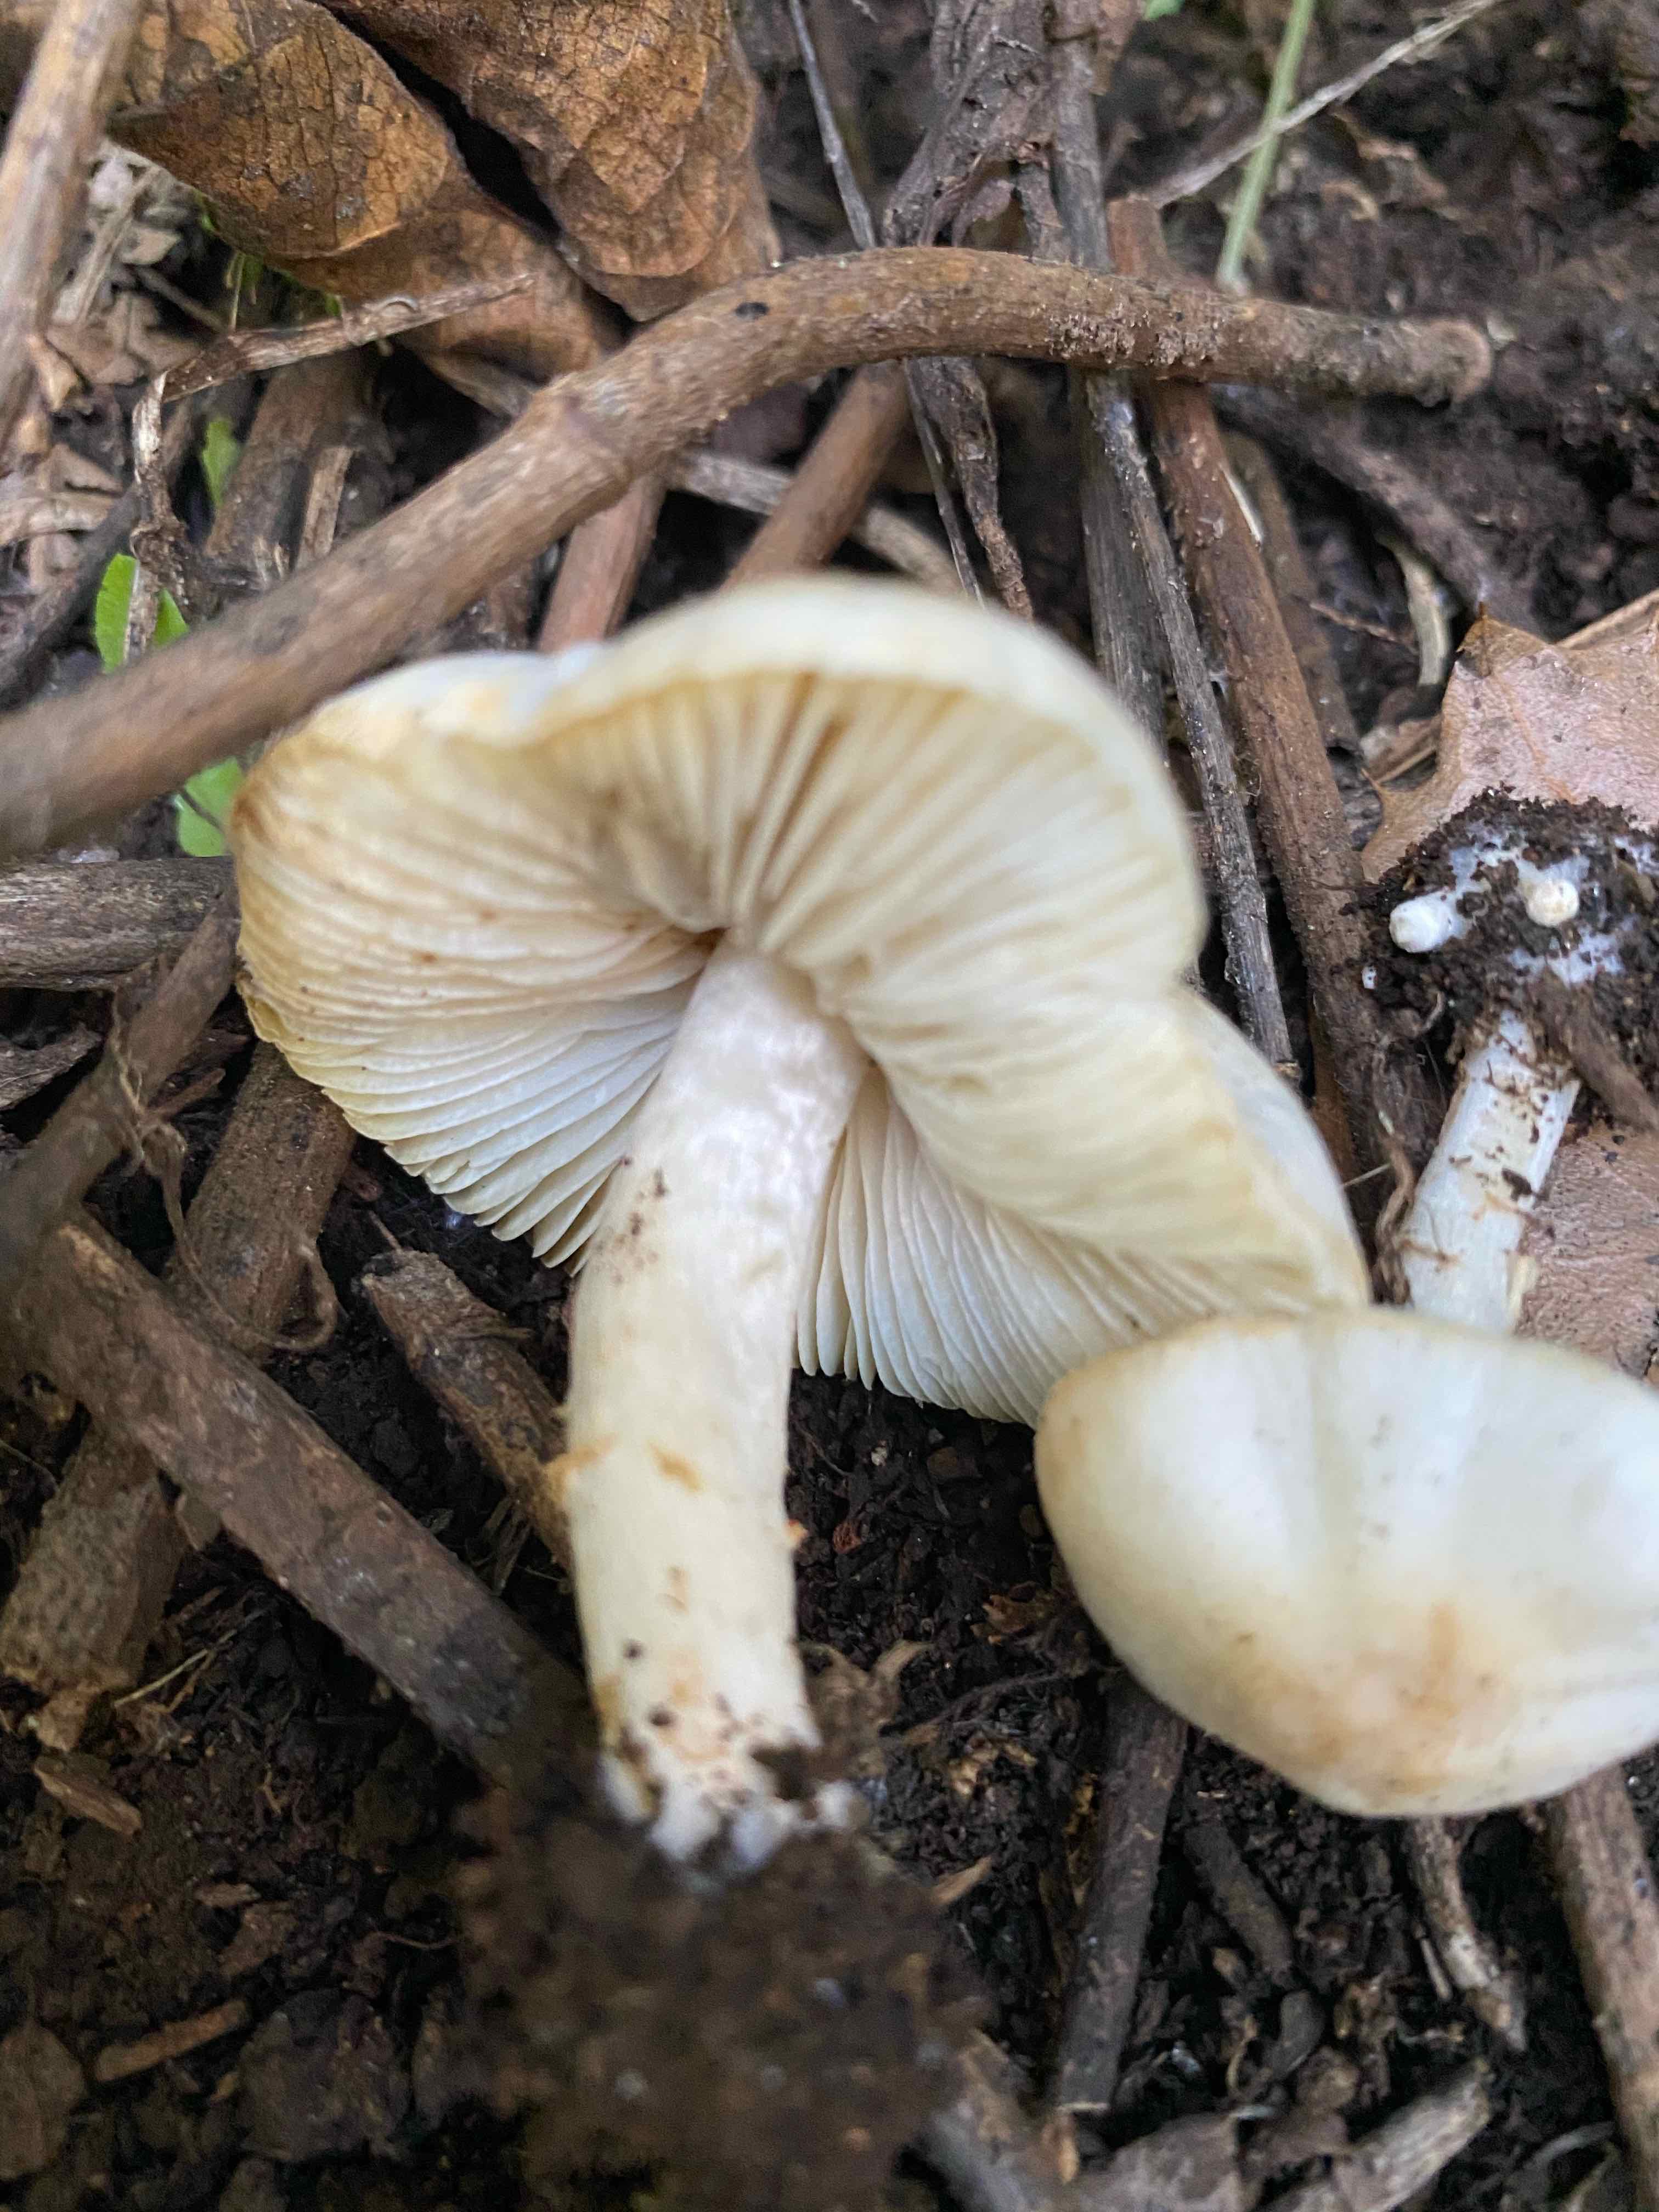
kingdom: Fungi
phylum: Basidiomycota
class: Agaricomycetes
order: Agaricales
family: Agaricaceae
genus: Lepiota
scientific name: Lepiota
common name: parasolhat
